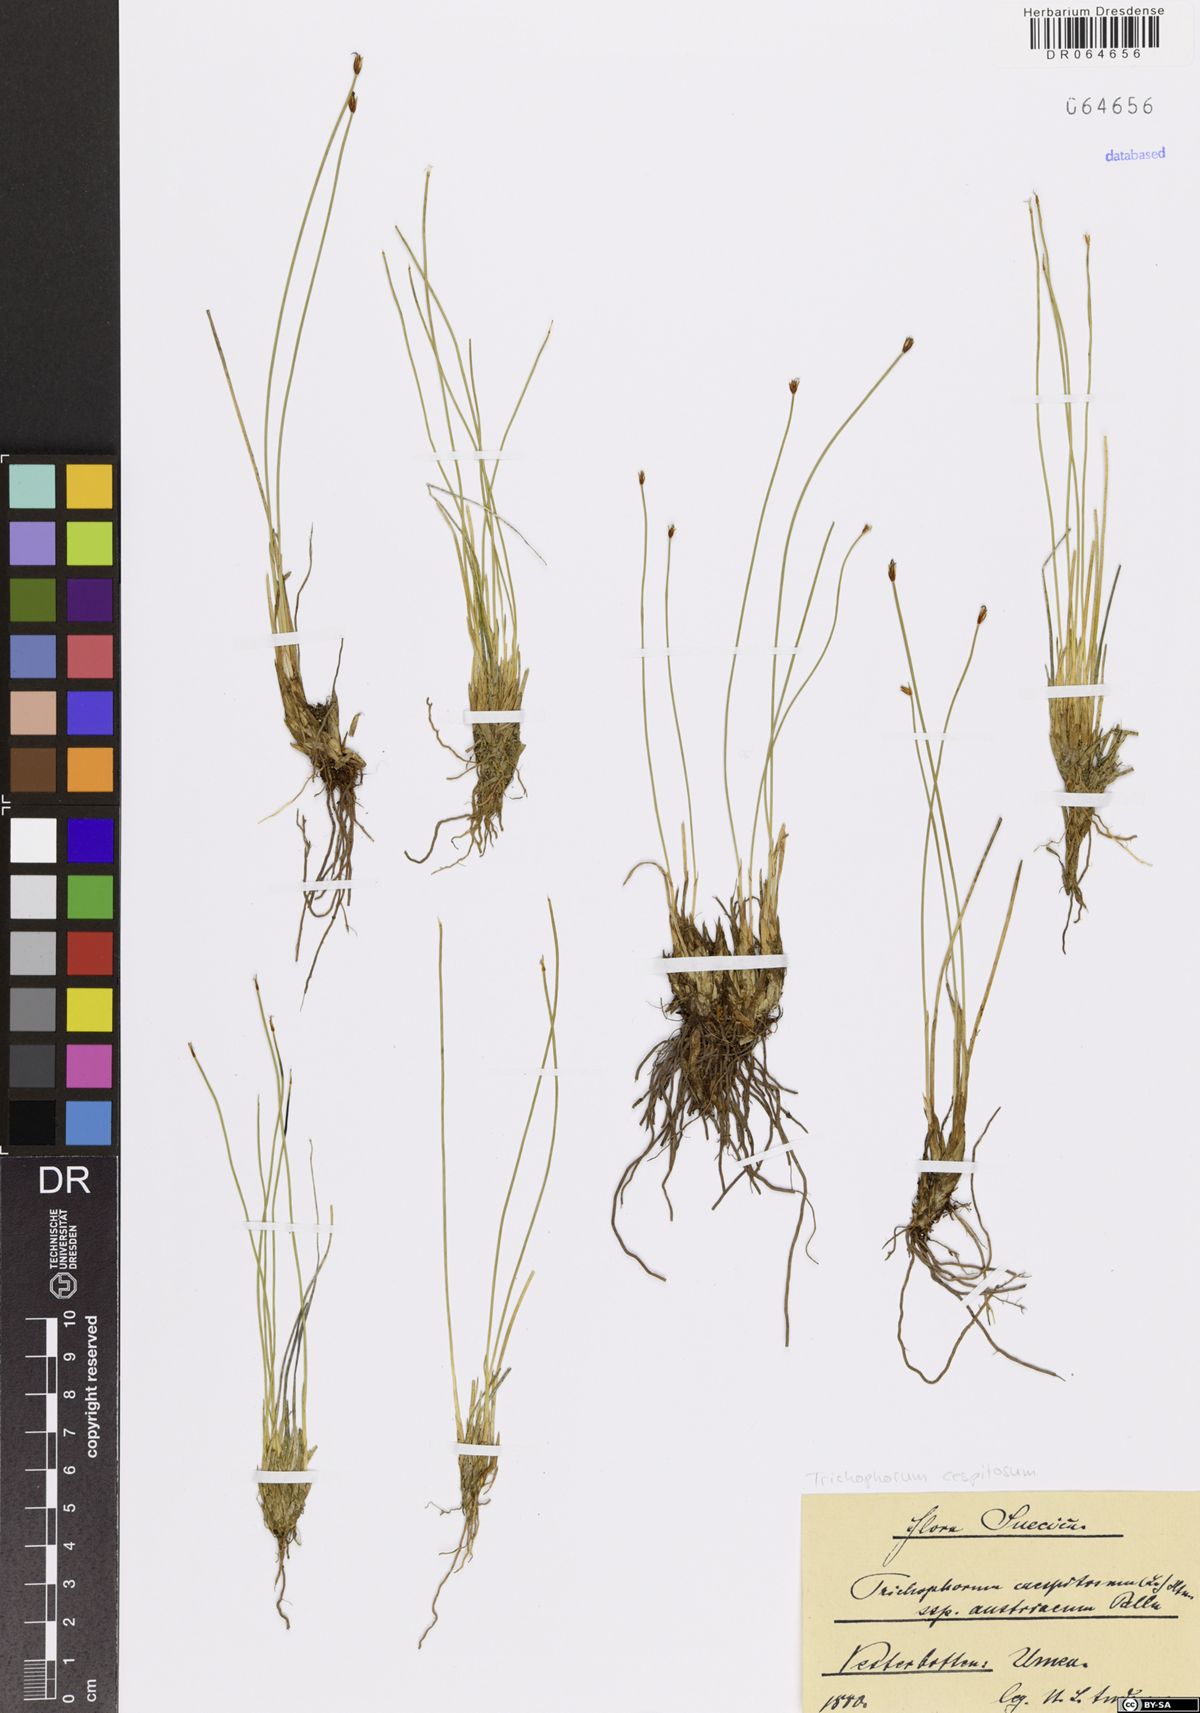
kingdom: Plantae
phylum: Tracheophyta
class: Liliopsida
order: Poales
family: Cyperaceae
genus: Trichophorum
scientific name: Trichophorum cespitosum
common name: Cespitose bulrush
